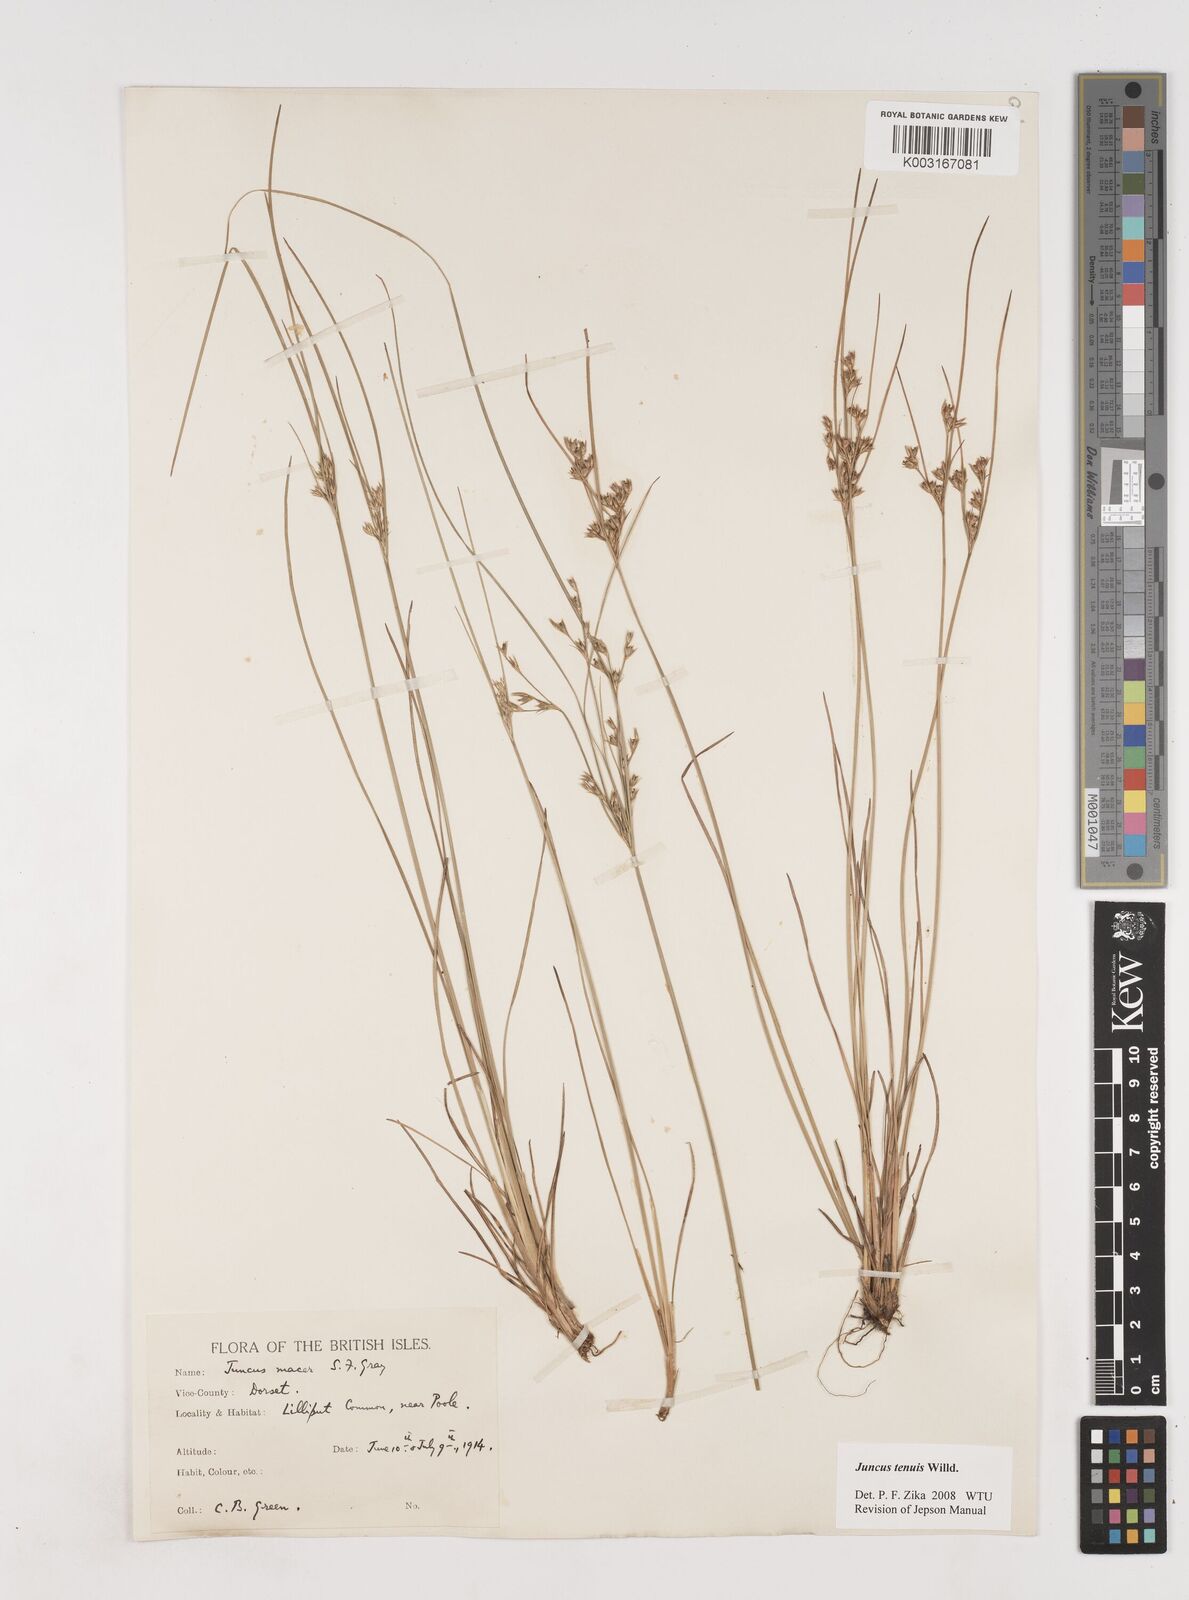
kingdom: Plantae
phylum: Tracheophyta
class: Liliopsida
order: Poales
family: Juncaceae
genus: Juncus
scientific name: Juncus tenuis
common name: Slender rush
